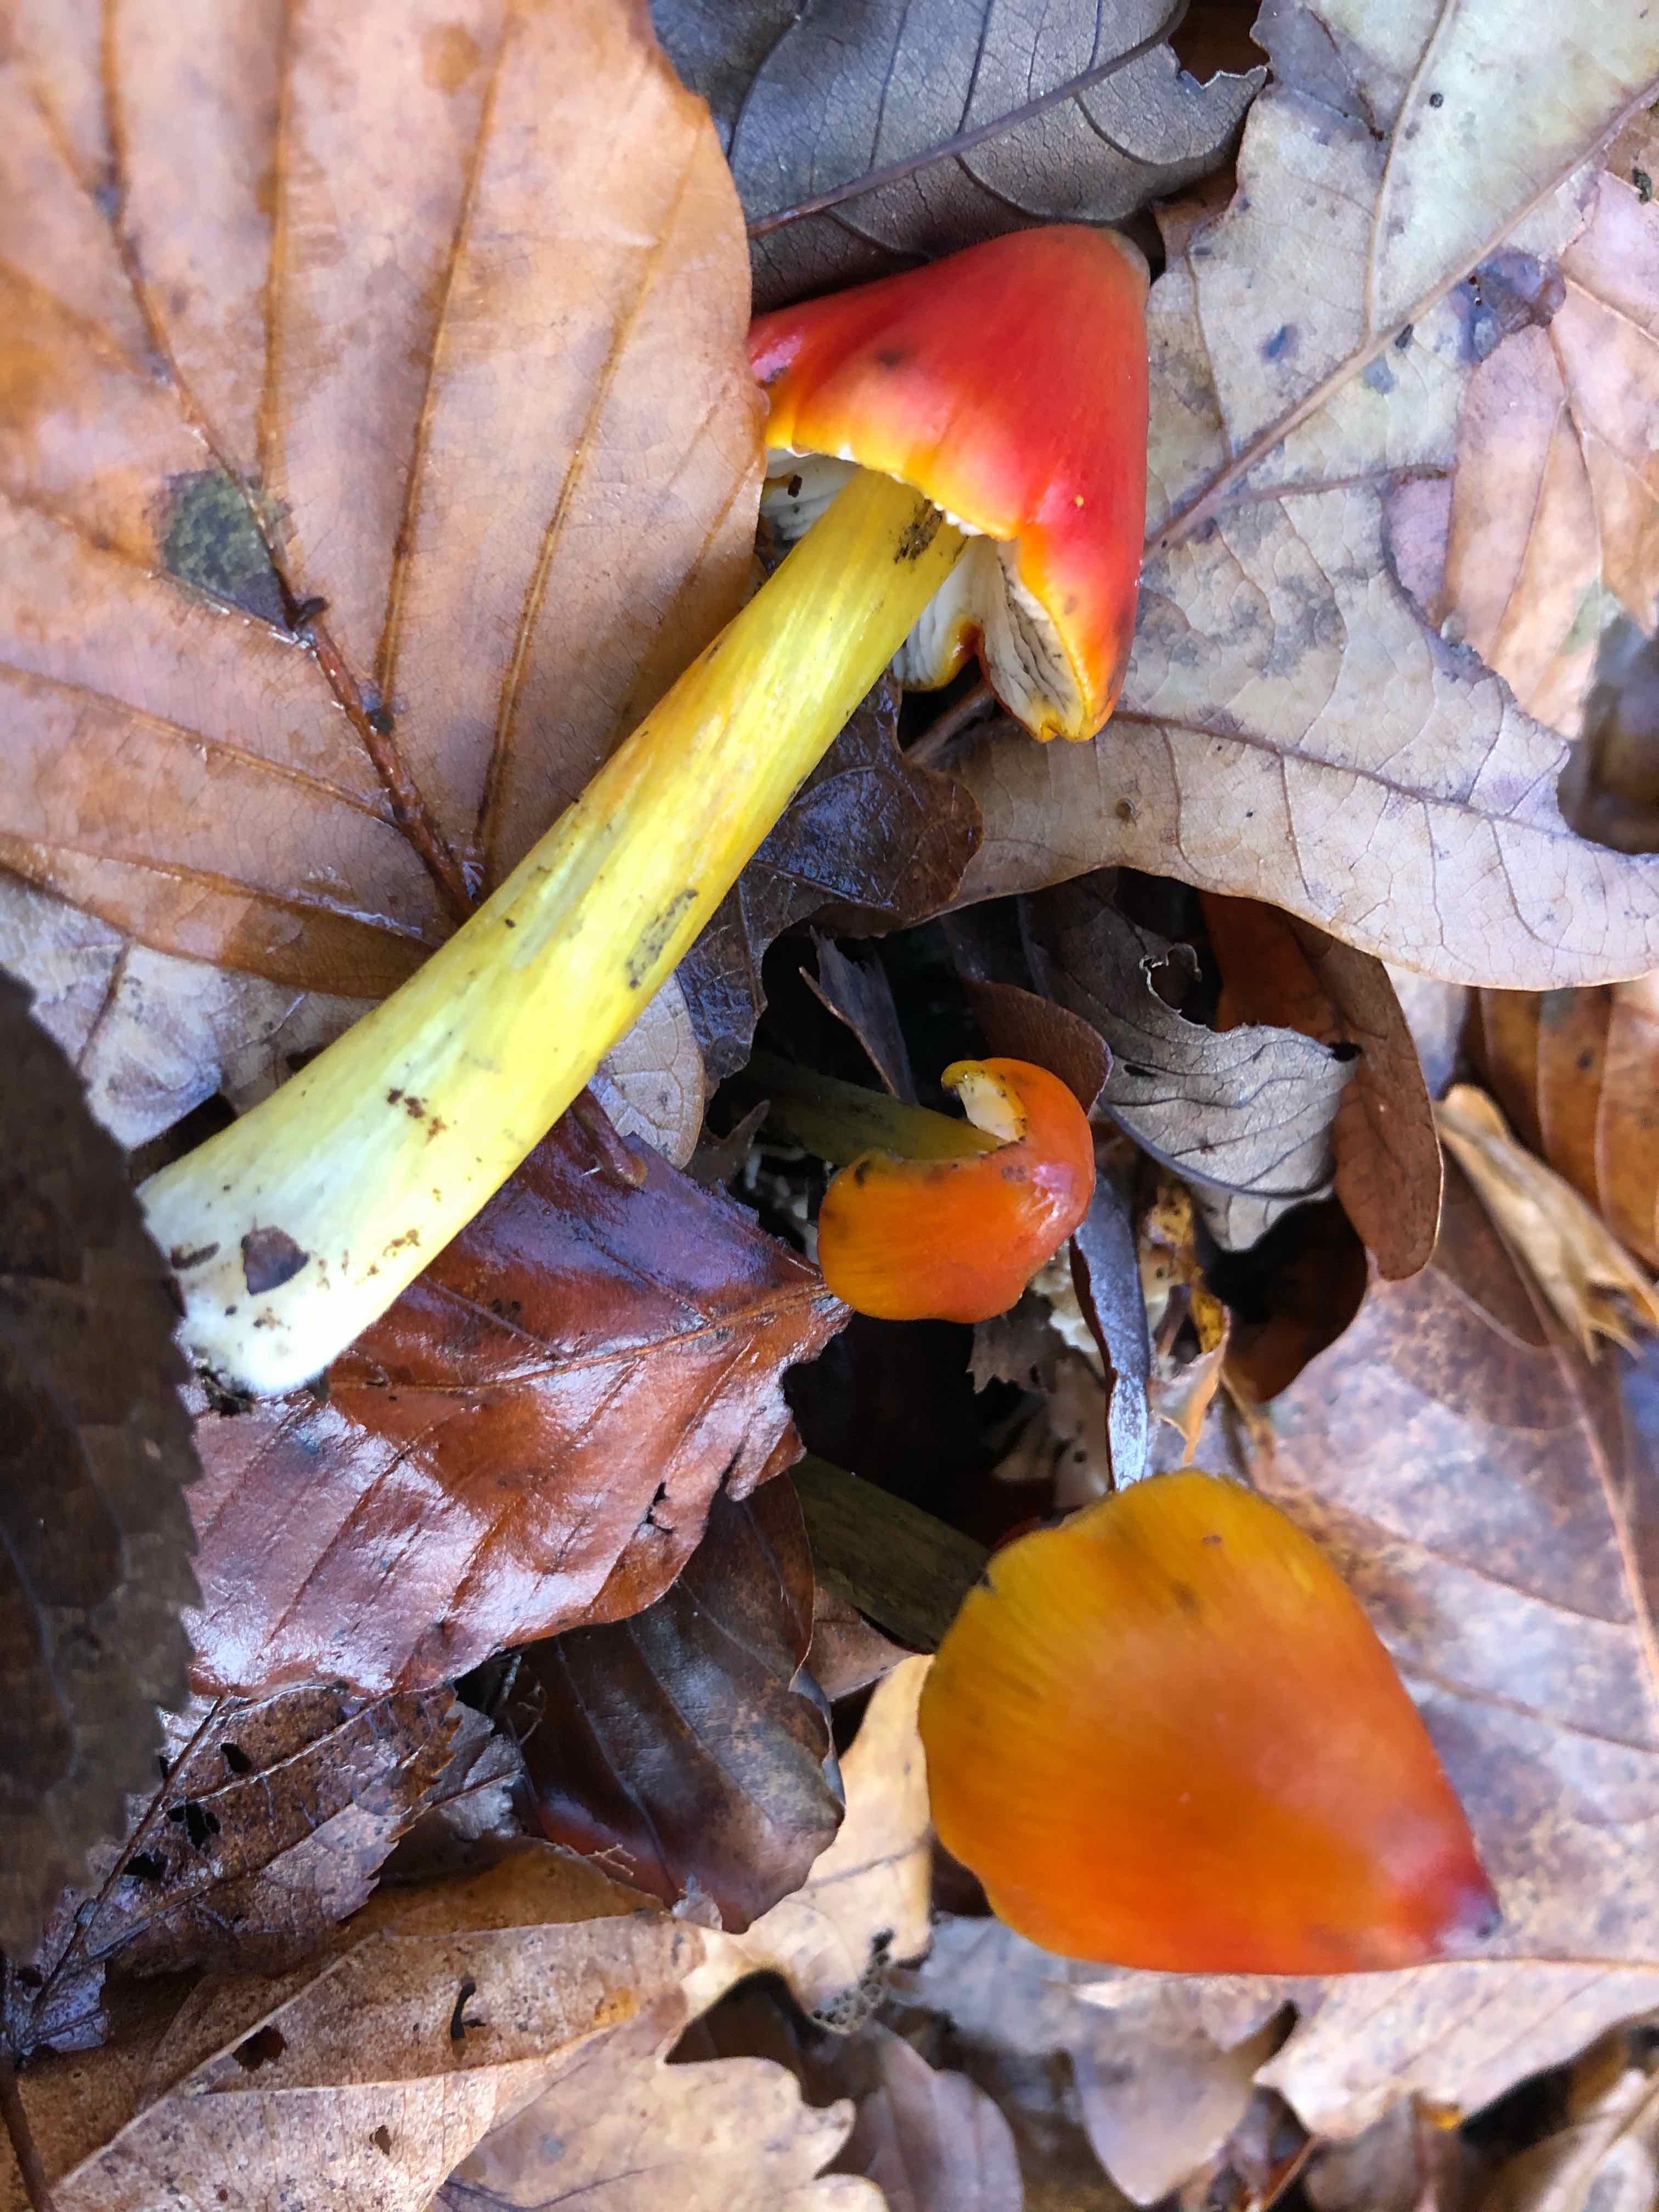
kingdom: Fungi
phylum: Basidiomycota
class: Agaricomycetes
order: Agaricales
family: Hygrophoraceae
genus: Hygrocybe
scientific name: Hygrocybe conica
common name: kegle-vokshat
